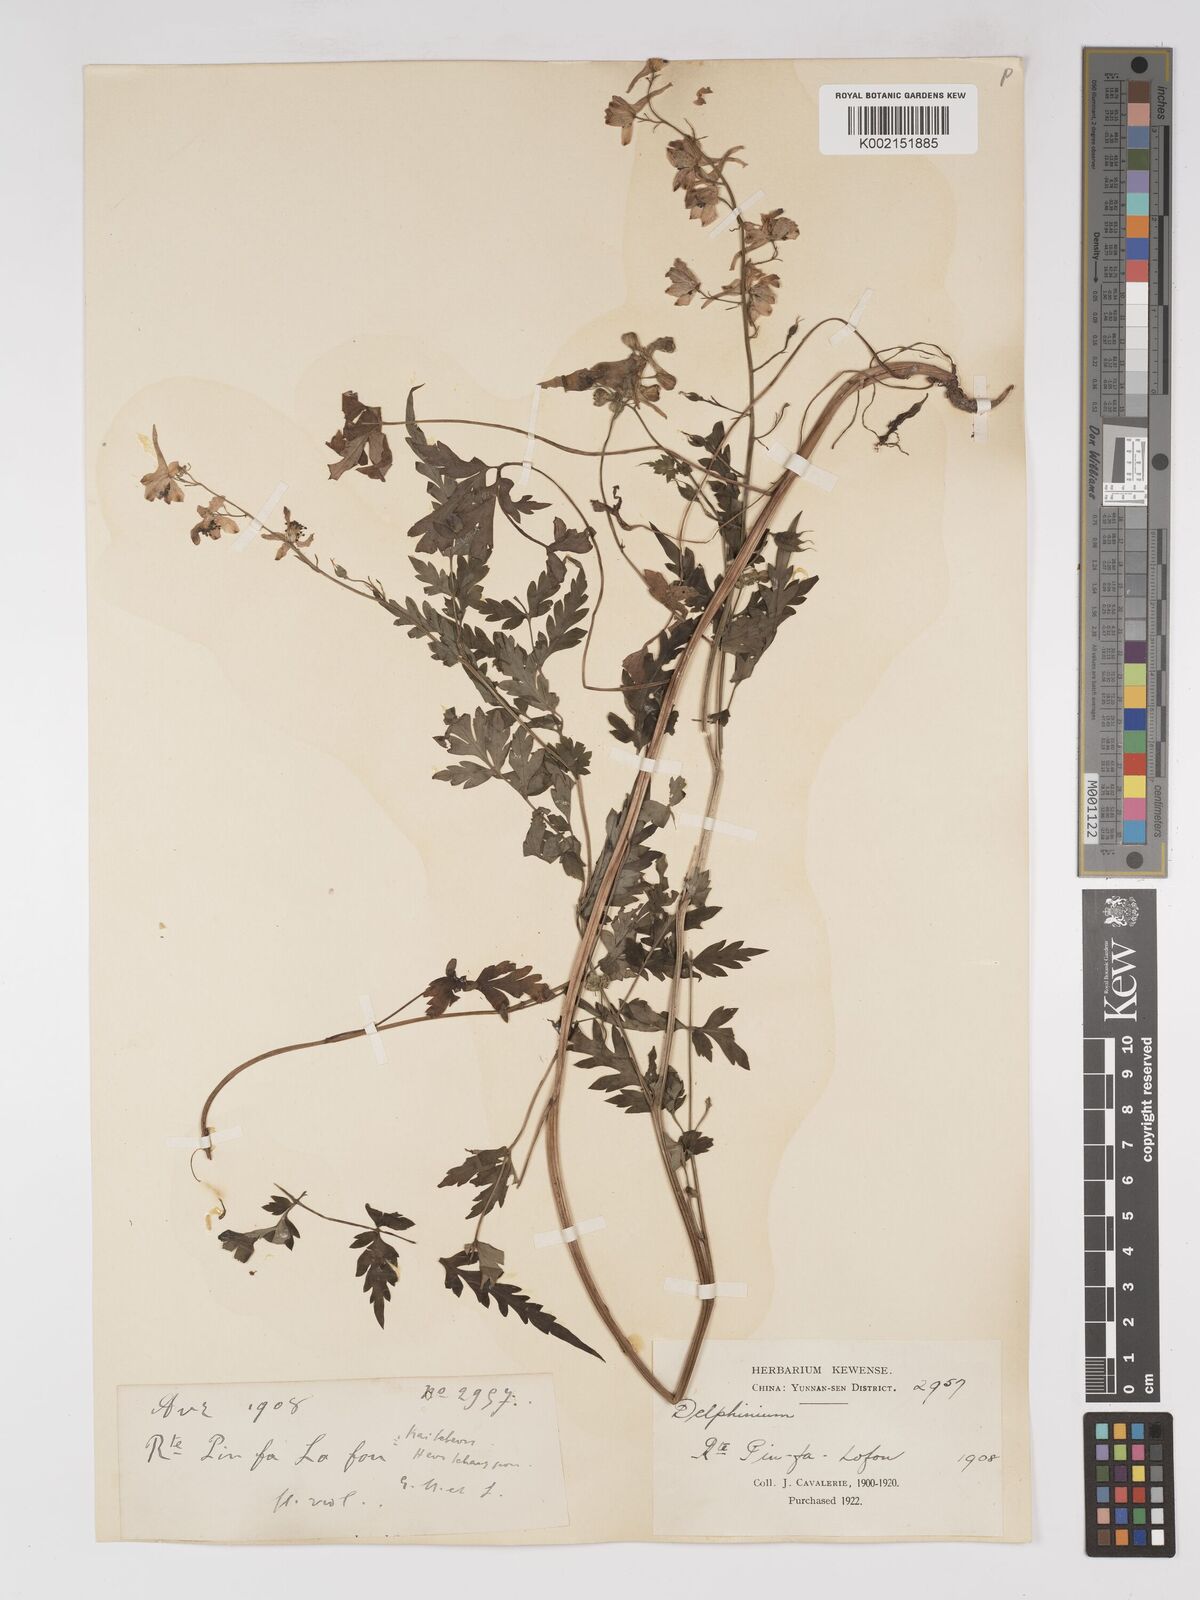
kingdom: Plantae
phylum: Tracheophyta
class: Magnoliopsida
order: Ranunculales
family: Ranunculaceae
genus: Delphinium
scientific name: Delphinium anthriscifolium
